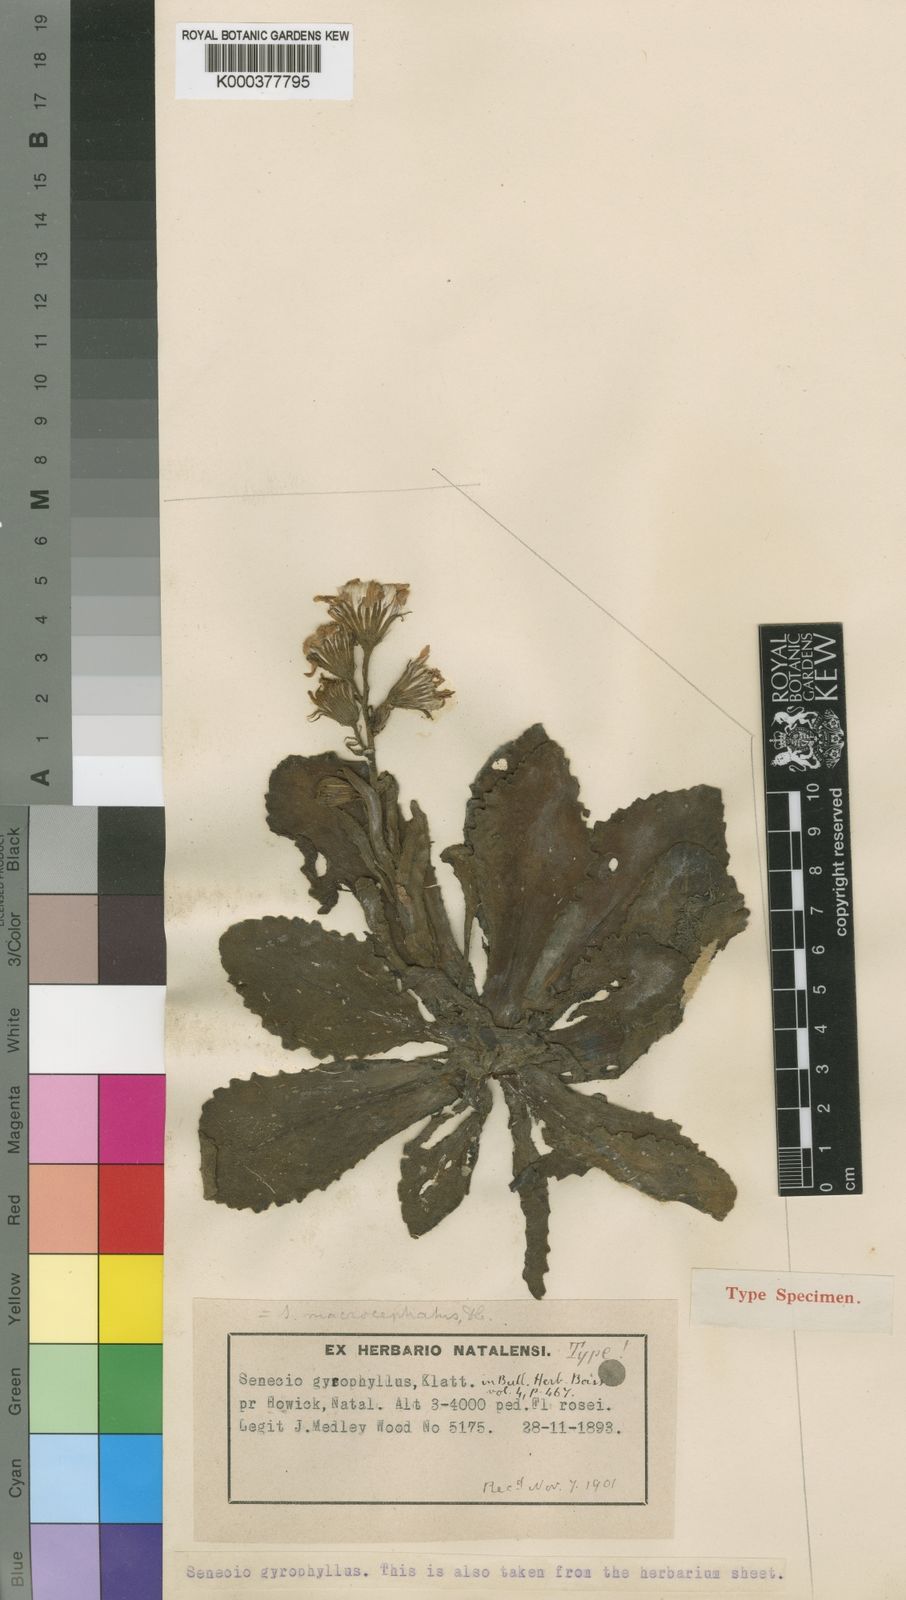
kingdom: Plantae
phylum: Tracheophyta
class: Magnoliopsida
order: Asterales
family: Asteraceae
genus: Senecio
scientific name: Senecio macrocephalus
